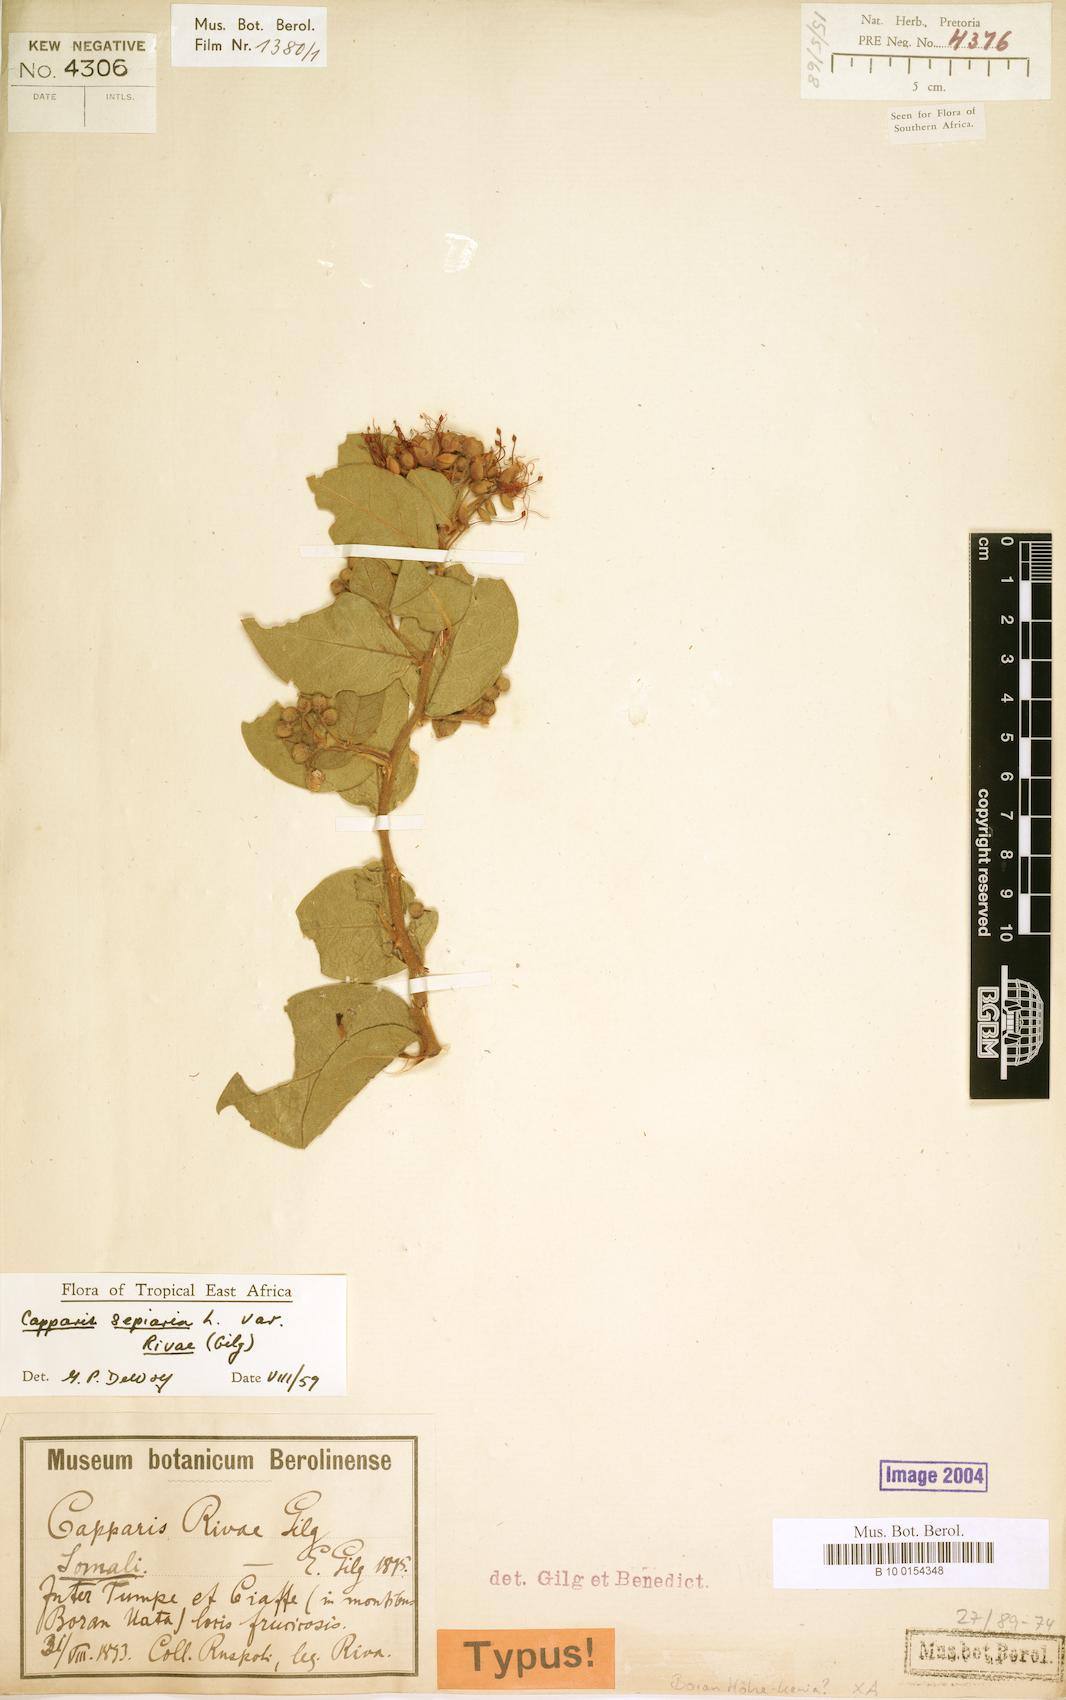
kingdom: Plantae
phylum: Tracheophyta
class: Magnoliopsida
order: Brassicales
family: Capparaceae
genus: Capparis
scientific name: Capparis sepiaria
